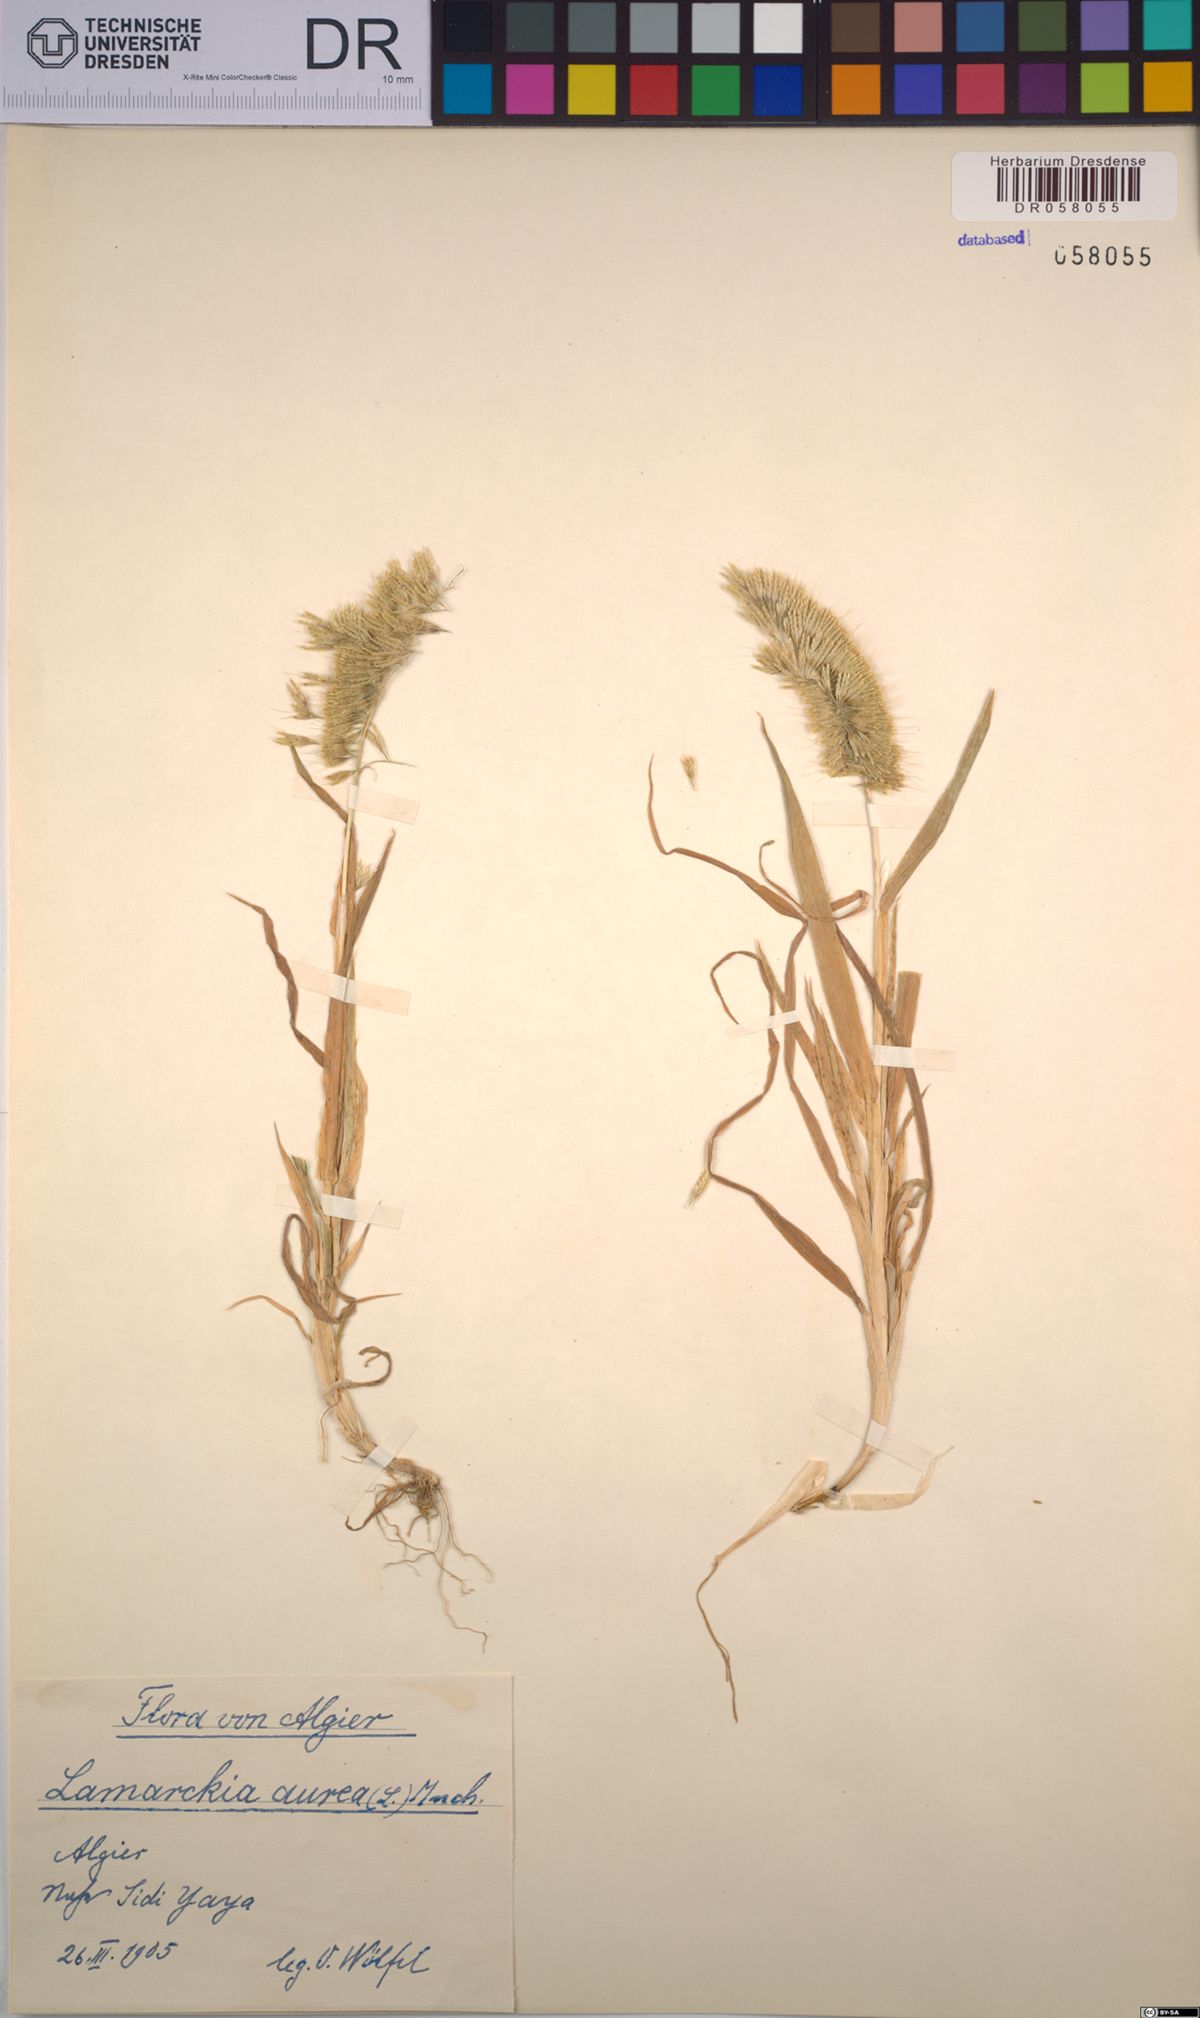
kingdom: Plantae
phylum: Tracheophyta
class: Liliopsida
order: Poales
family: Poaceae
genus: Lamarckia
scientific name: Lamarckia aurea
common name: Golden dog's-tail
